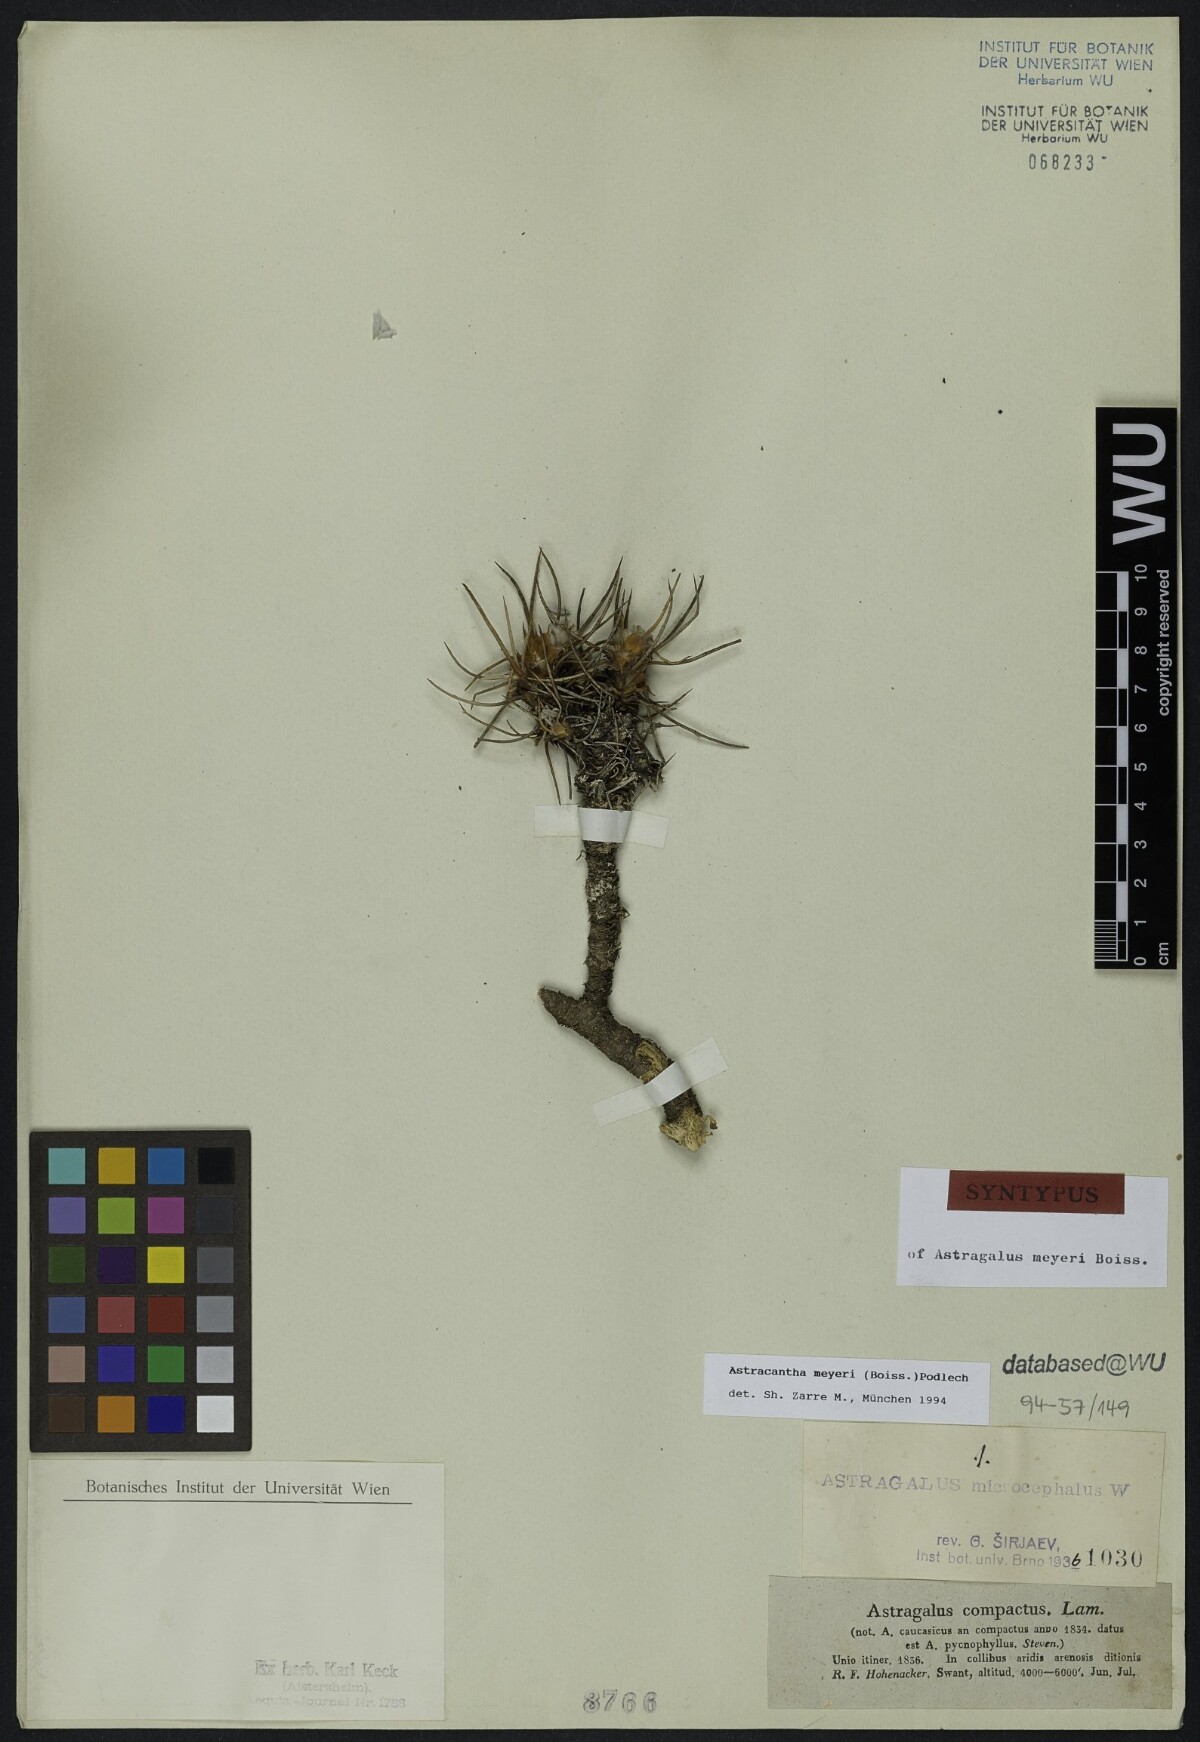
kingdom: Plantae
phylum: Tracheophyta
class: Magnoliopsida
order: Fabales
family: Fabaceae
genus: Astragalus
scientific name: Astragalus meyeri
